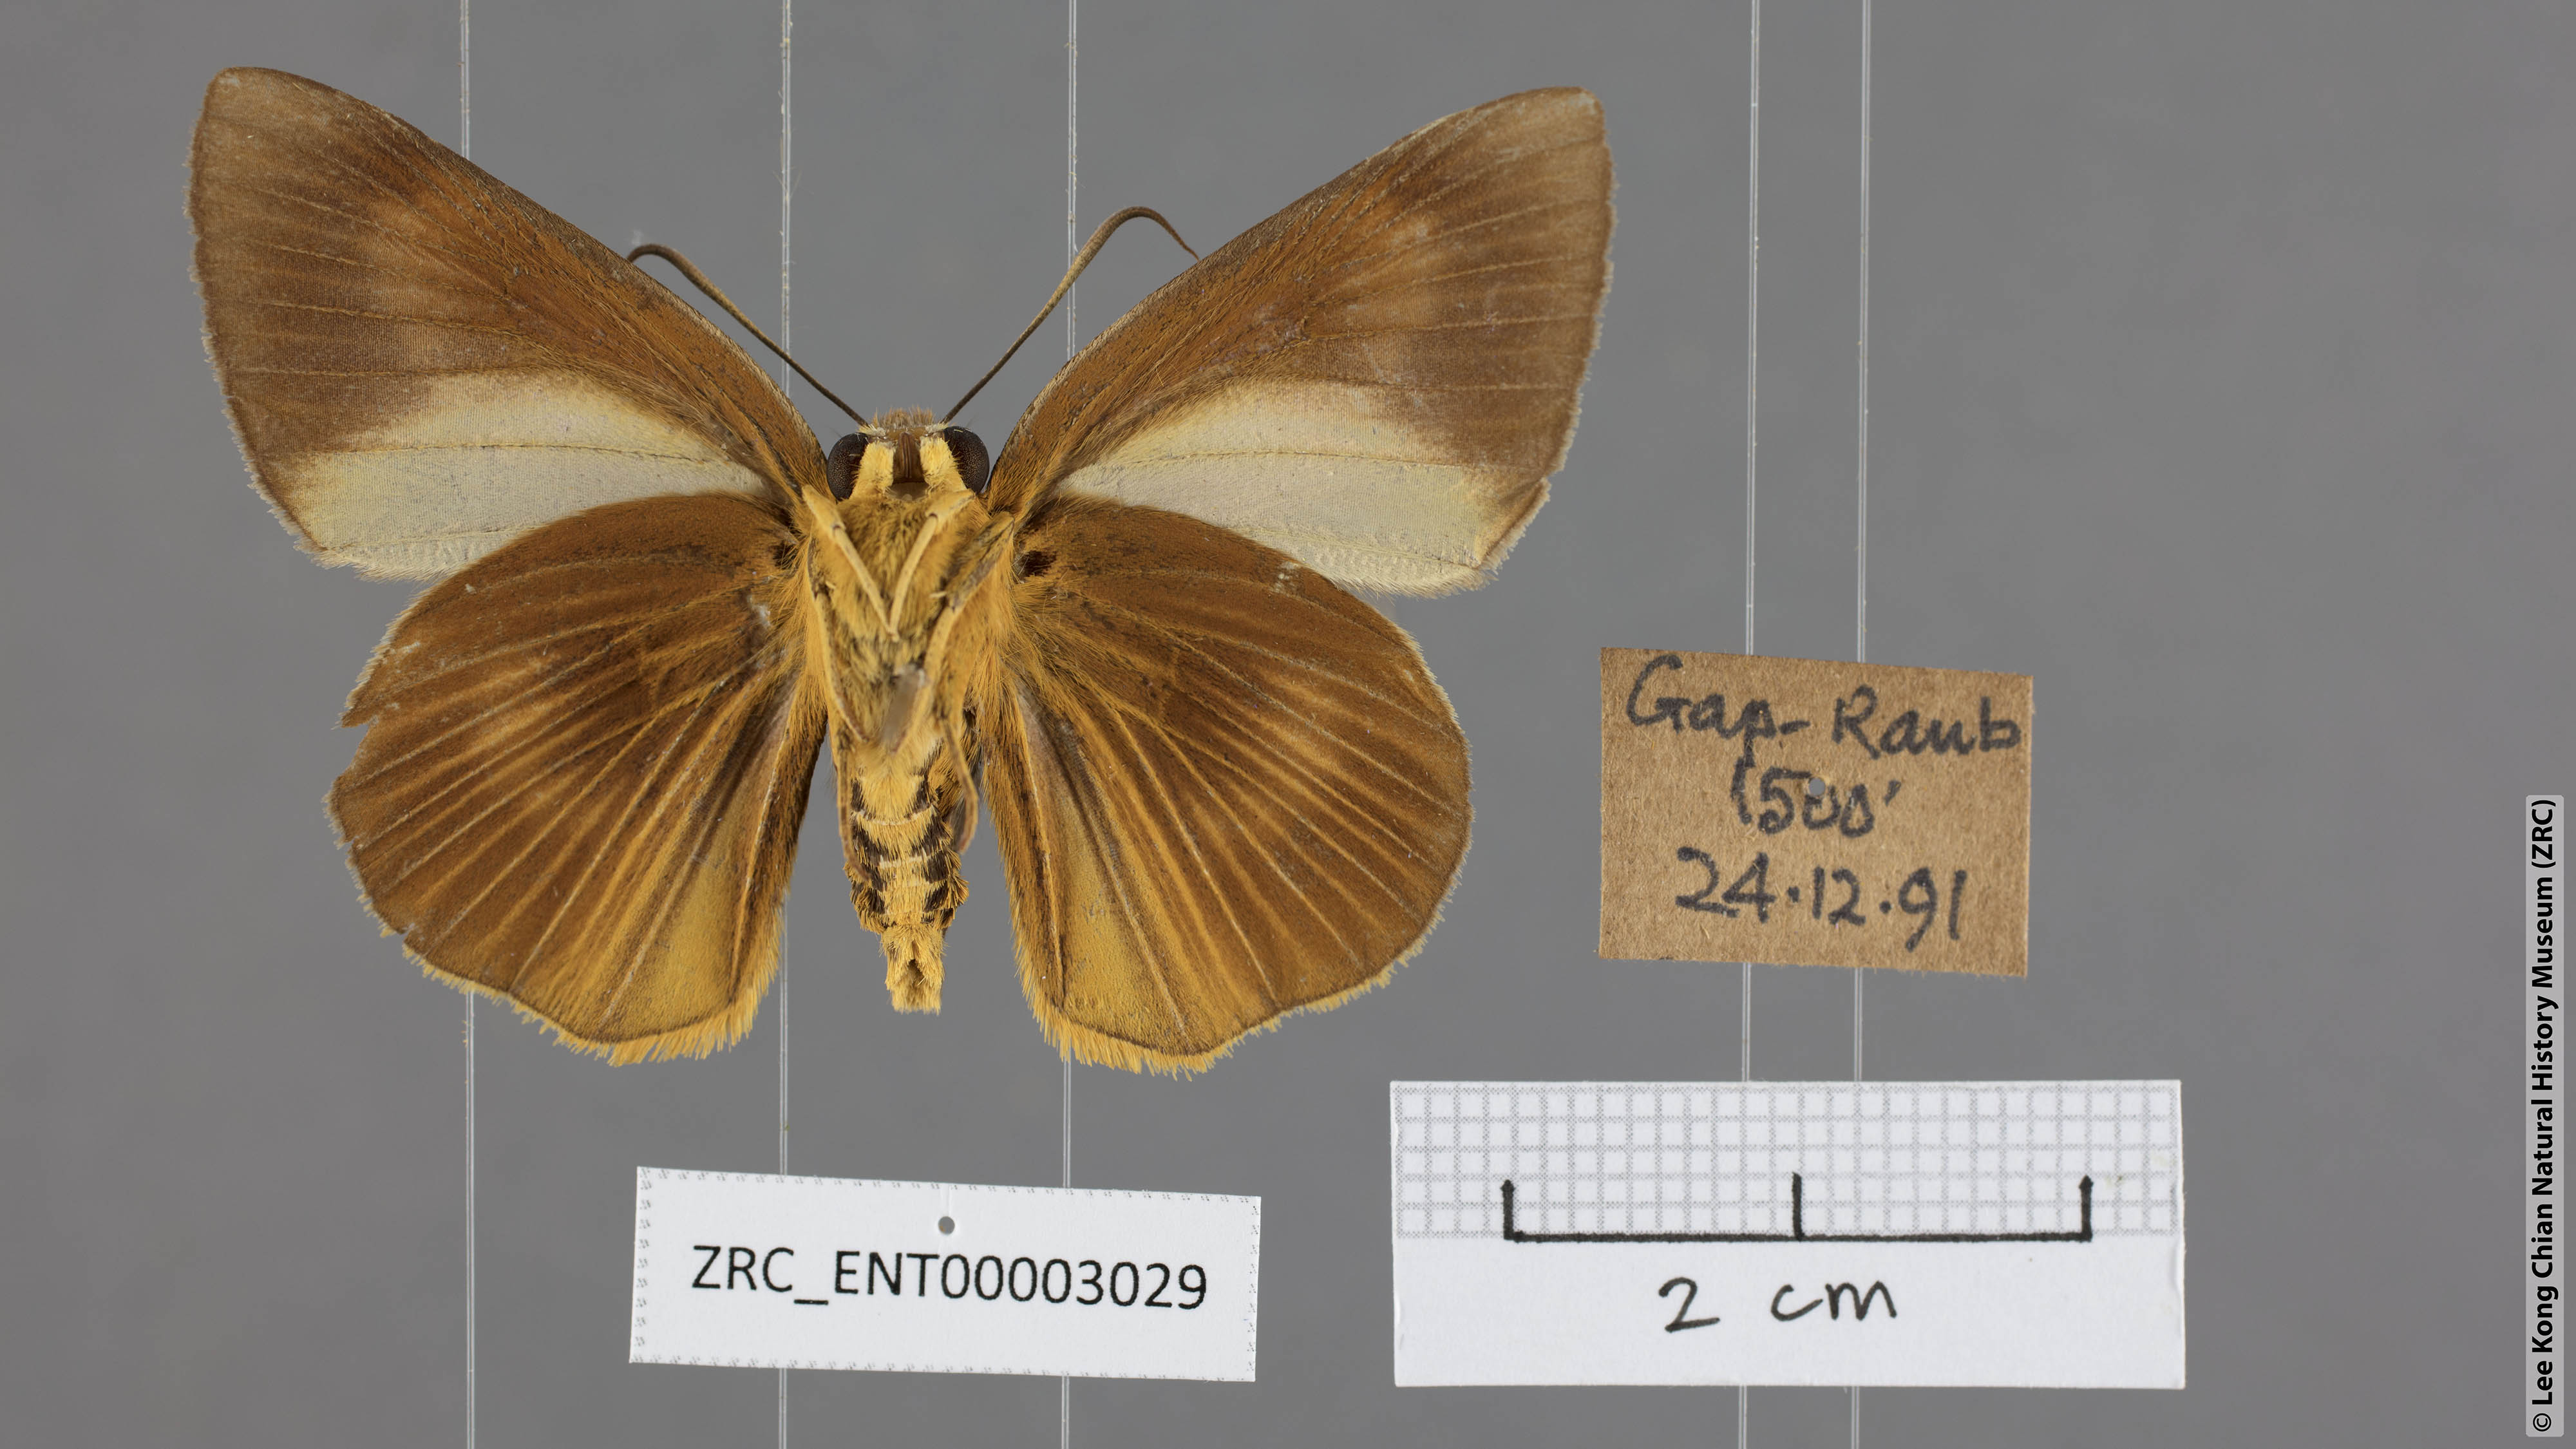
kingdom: Animalia
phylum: Arthropoda
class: Insecta
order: Lepidoptera
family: Hesperiidae
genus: Bibasis
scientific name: Bibasis Burara harisa
